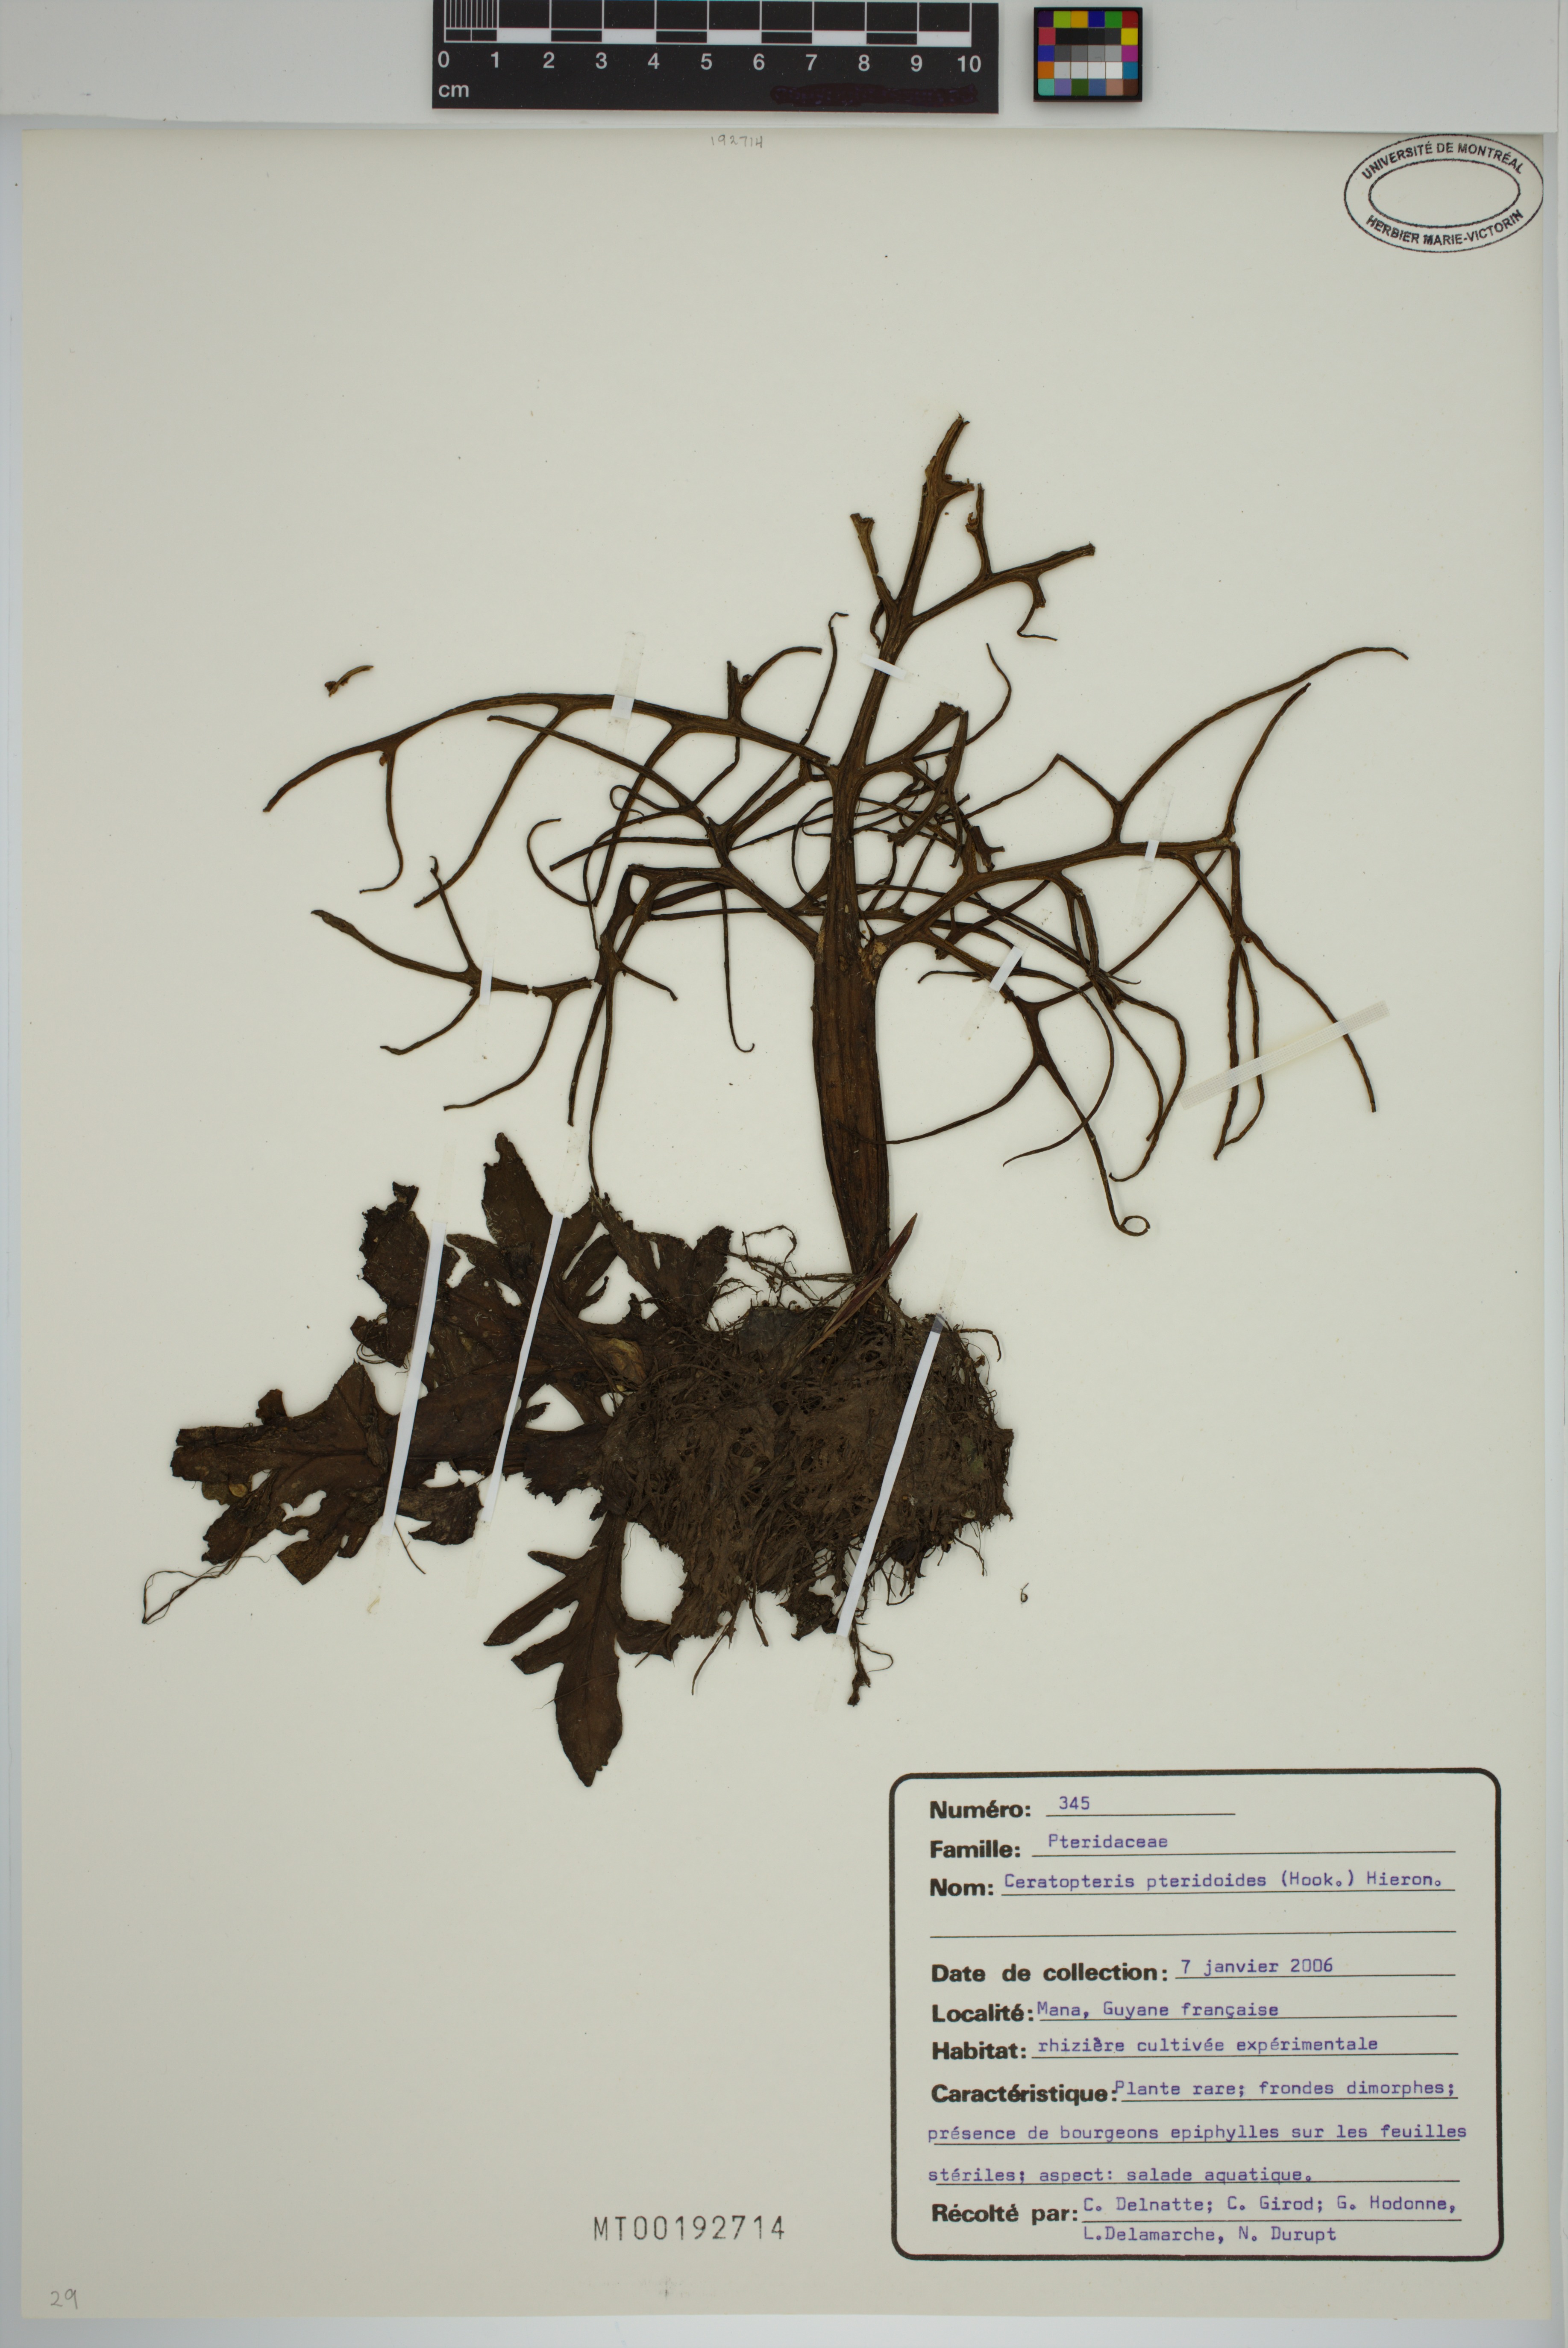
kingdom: Plantae
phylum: Tracheophyta
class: Polypodiopsida
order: Polypodiales
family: Pteridaceae
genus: Ceratopteris
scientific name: Ceratopteris pteridoides
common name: Floating fern
